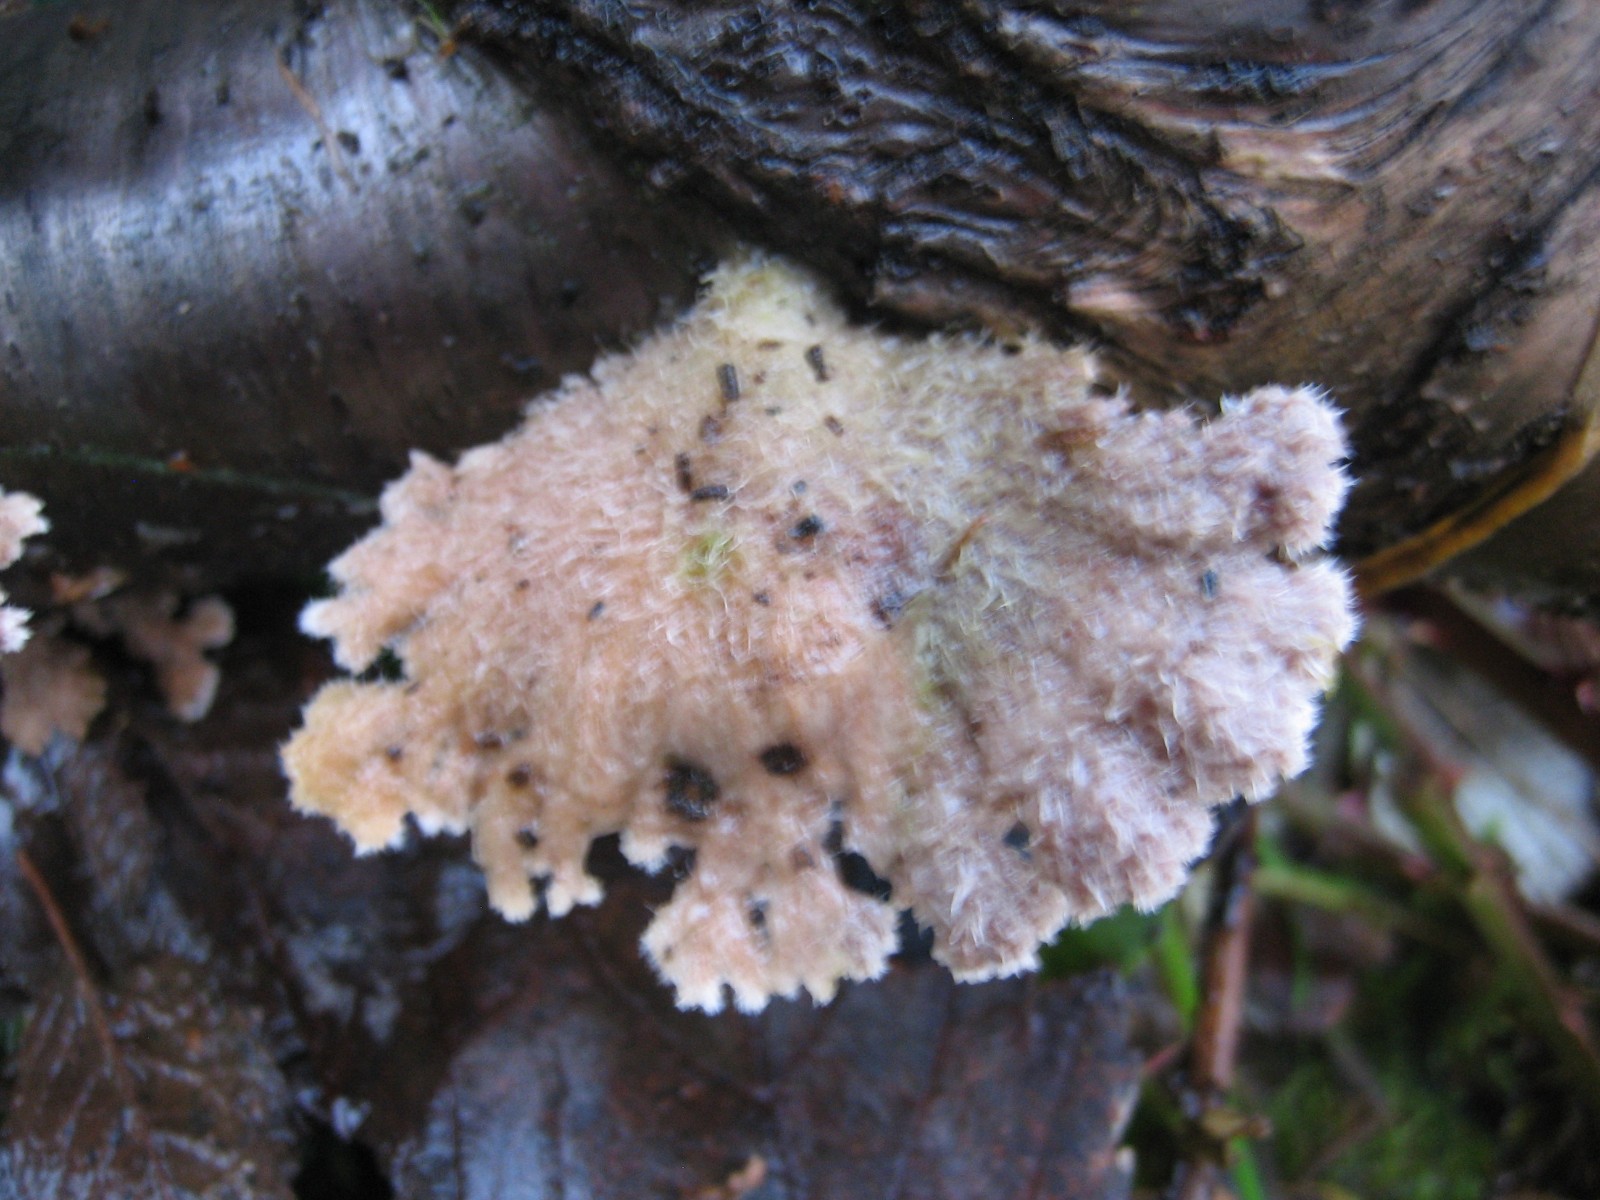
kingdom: Fungi
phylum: Basidiomycota
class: Agaricomycetes
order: Agaricales
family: Schizophyllaceae
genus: Schizophyllum
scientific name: Schizophyllum commune
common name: kløvblad
